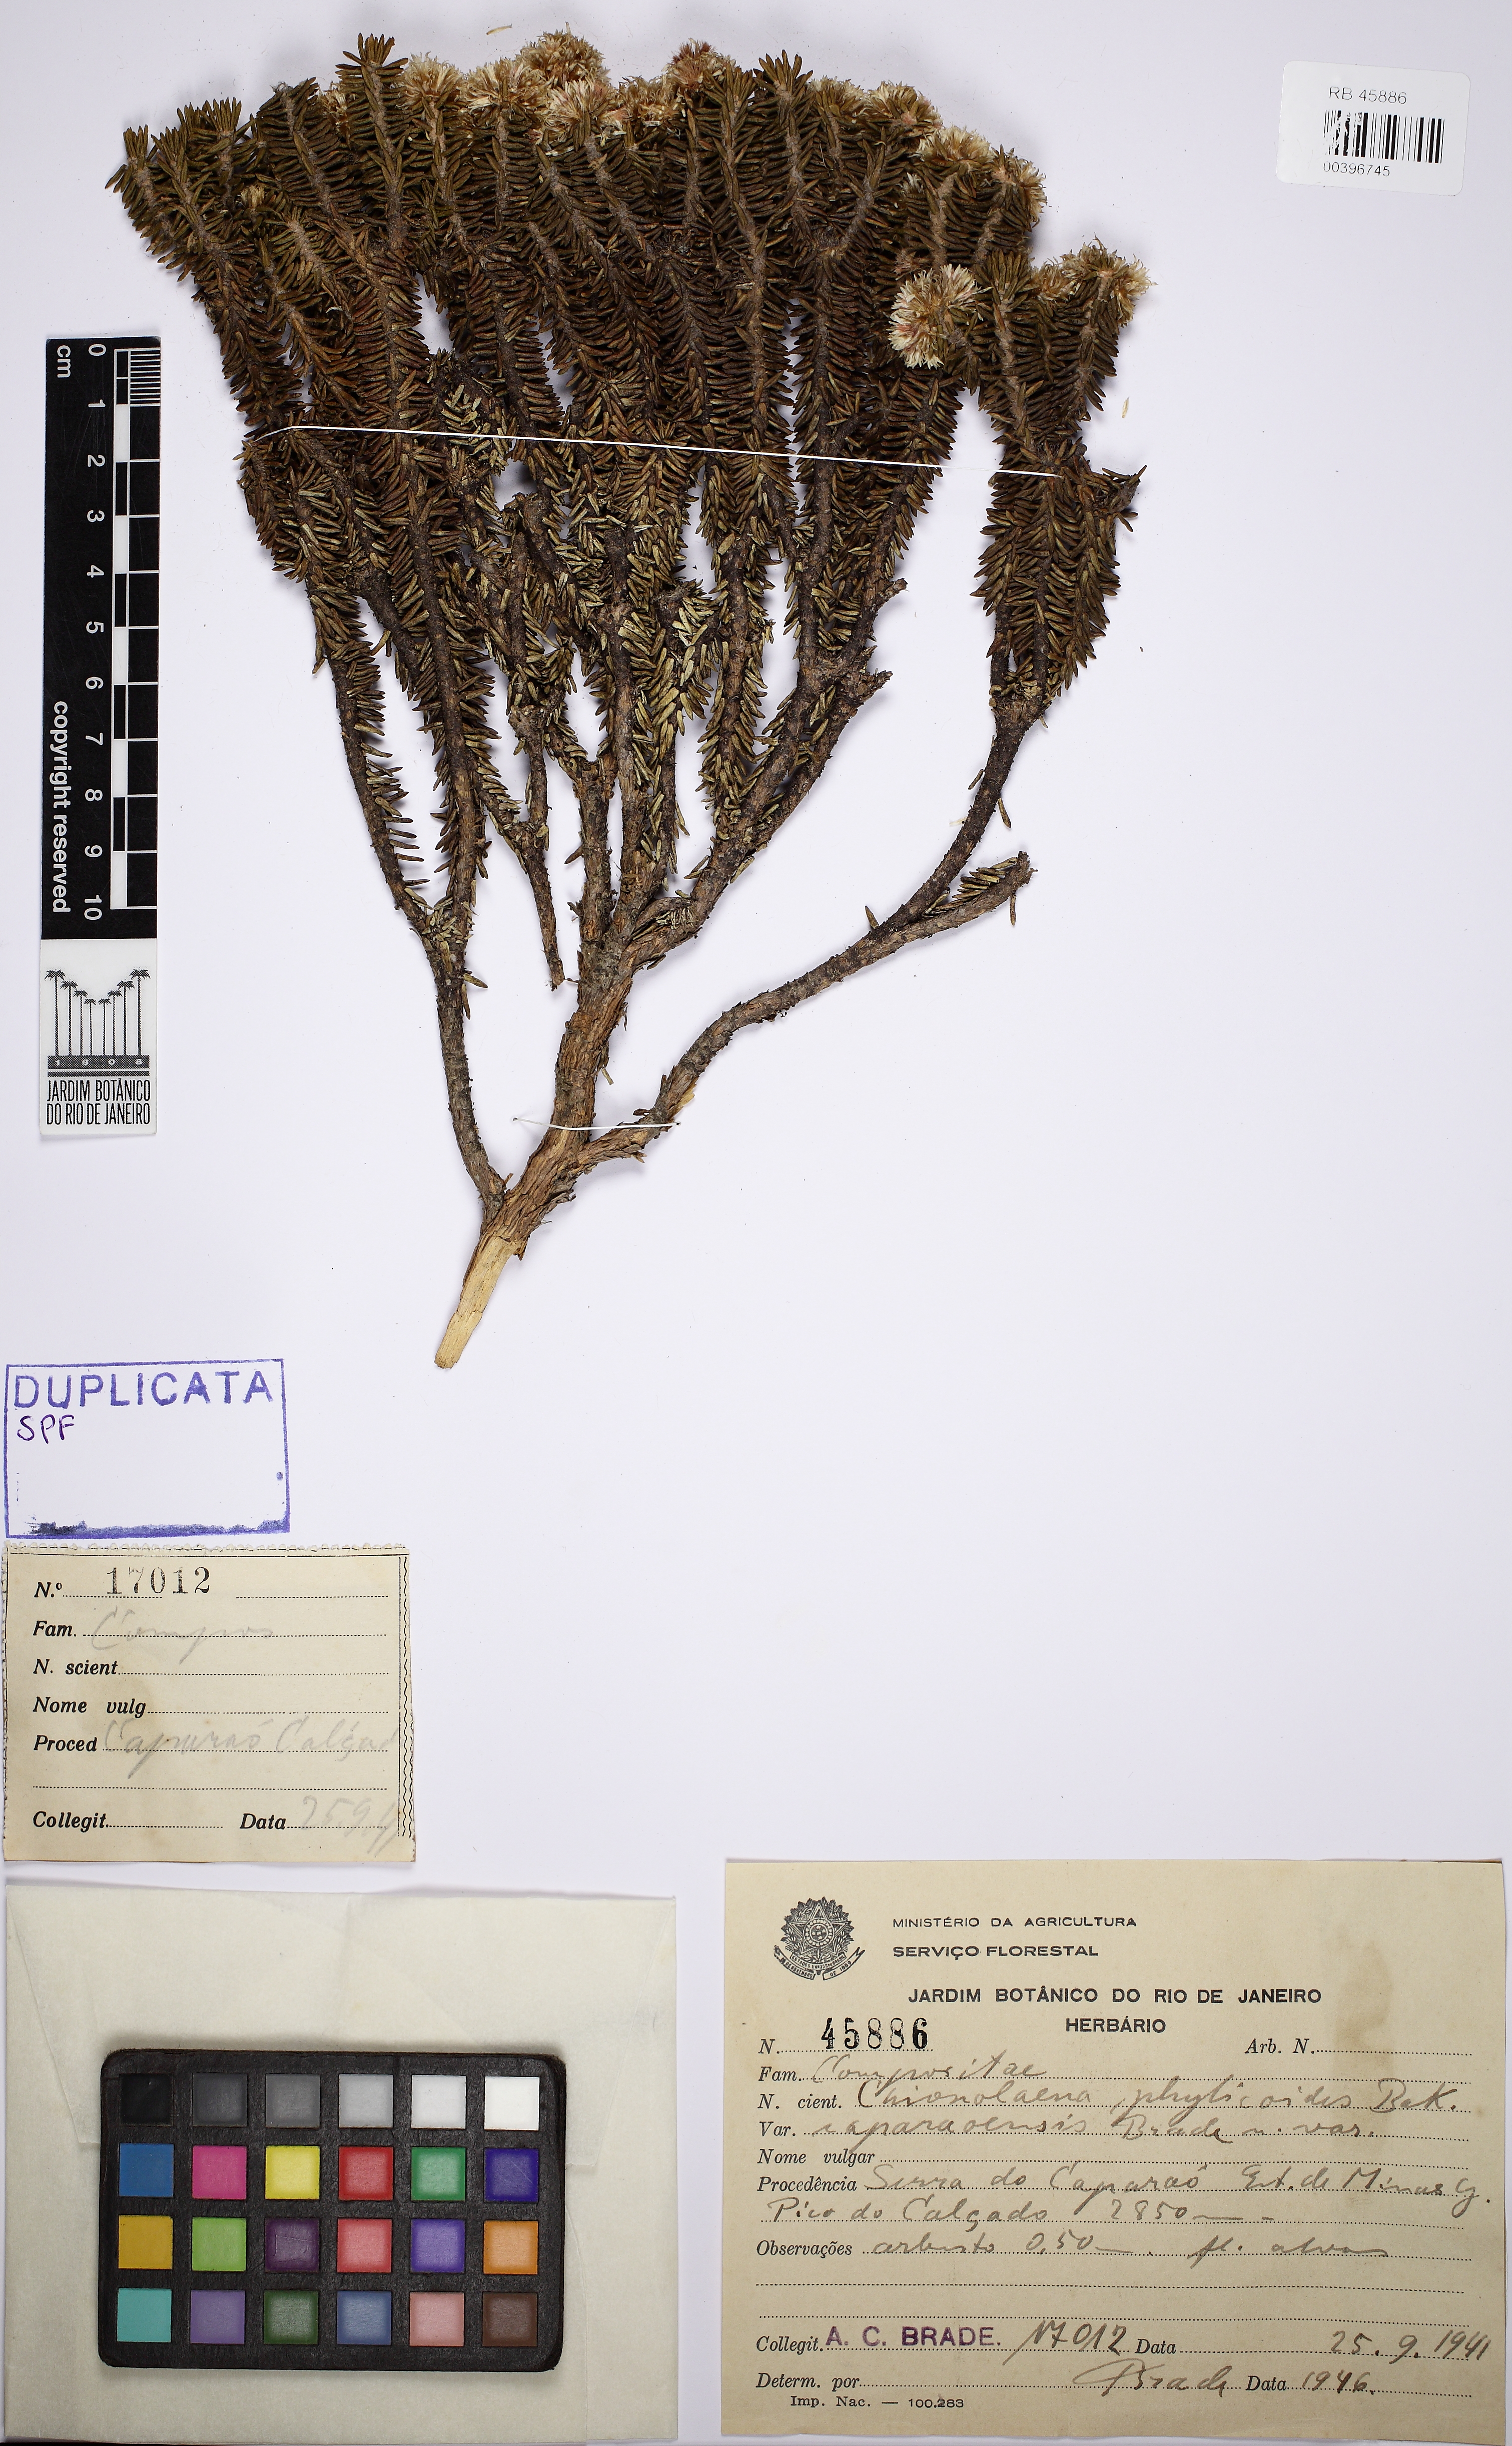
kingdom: Plantae
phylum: Tracheophyta
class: Magnoliopsida
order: Asterales
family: Asteraceae
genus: Chionolaena
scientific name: Chionolaena phylicoides
